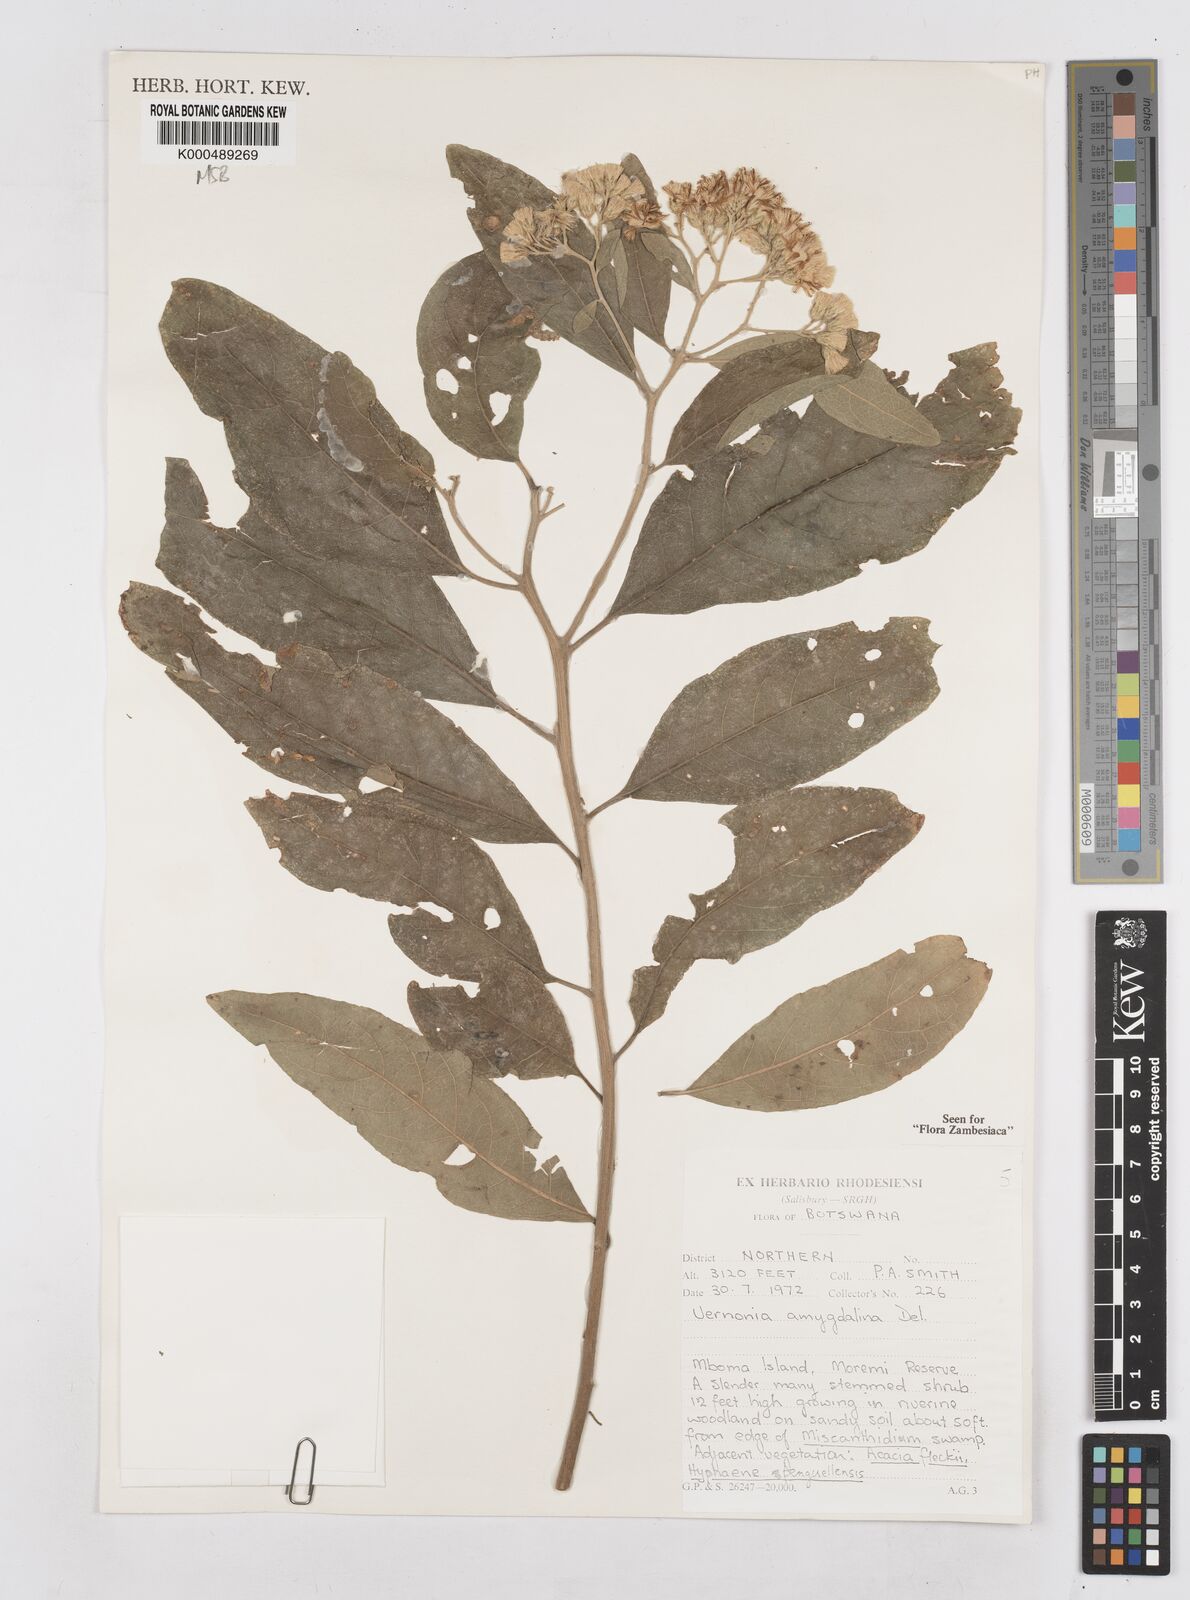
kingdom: Plantae
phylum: Tracheophyta
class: Magnoliopsida
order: Asterales
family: Asteraceae
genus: Gymnanthemum
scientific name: Gymnanthemum amygdalinum
